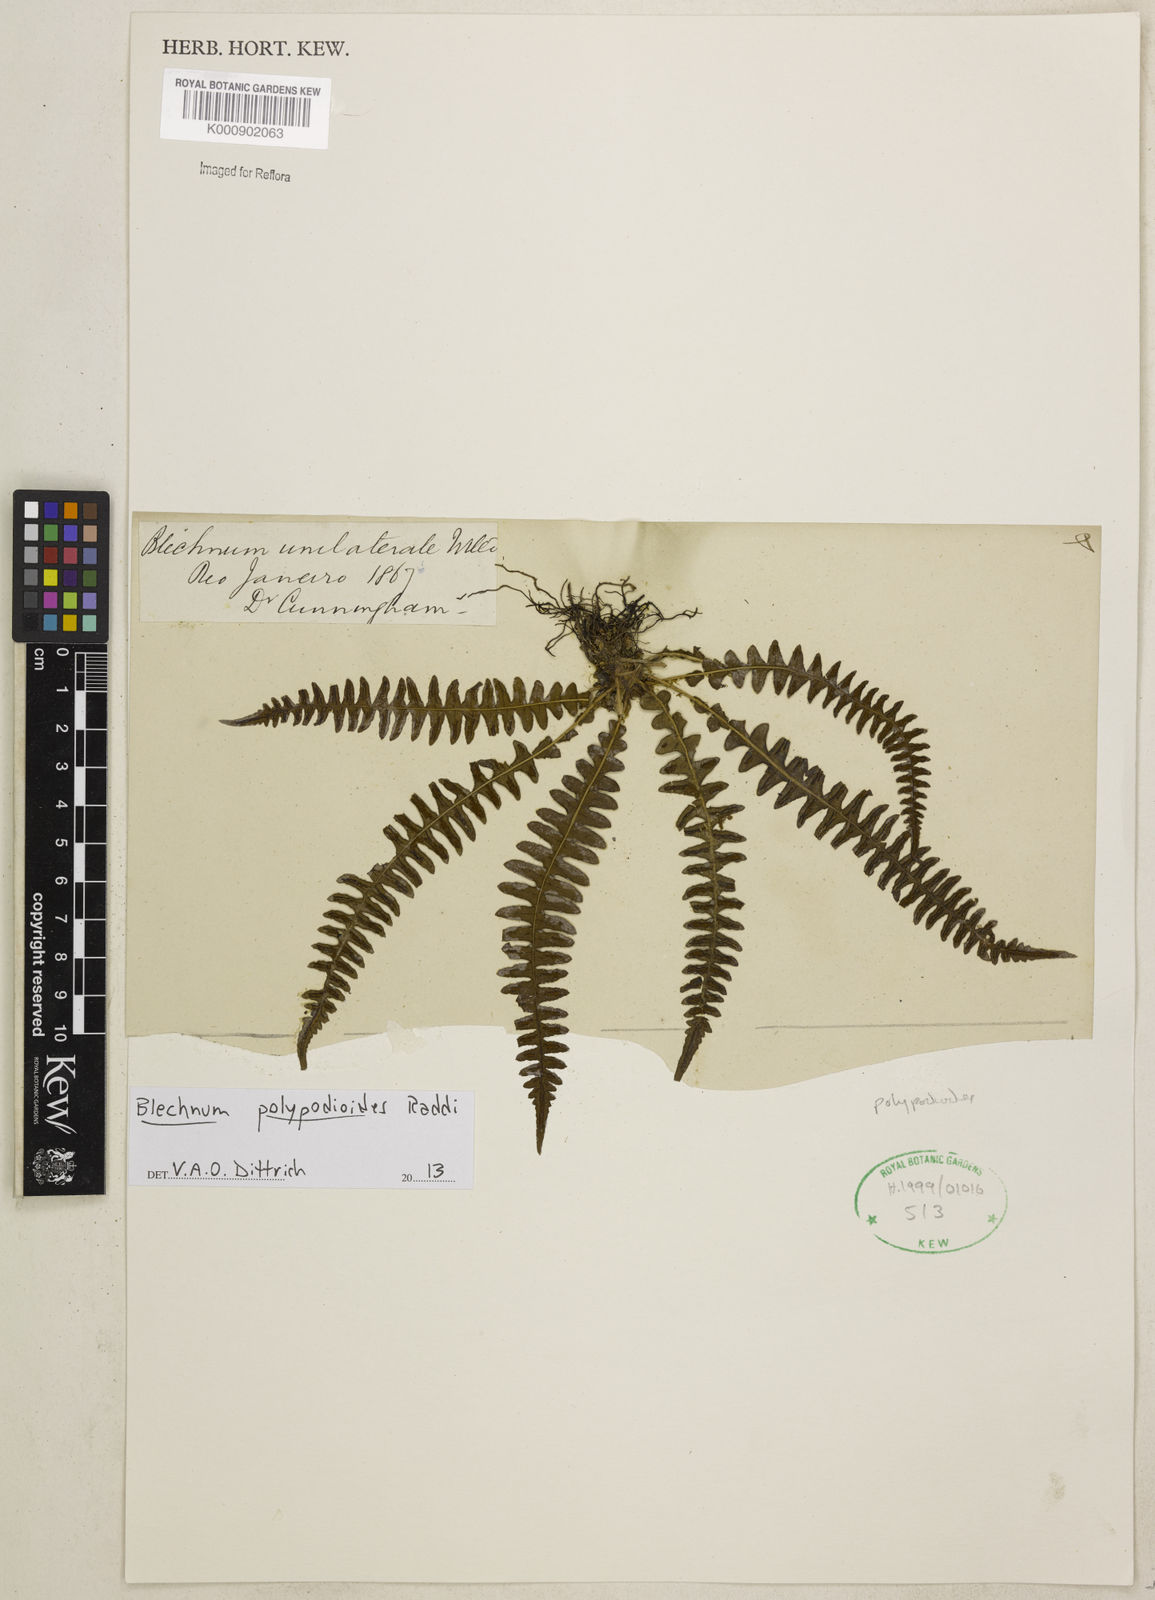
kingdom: Plantae
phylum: Tracheophyta
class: Polypodiopsida
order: Polypodiales
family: Blechnaceae
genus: Blechnum
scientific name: Blechnum polypodioides
